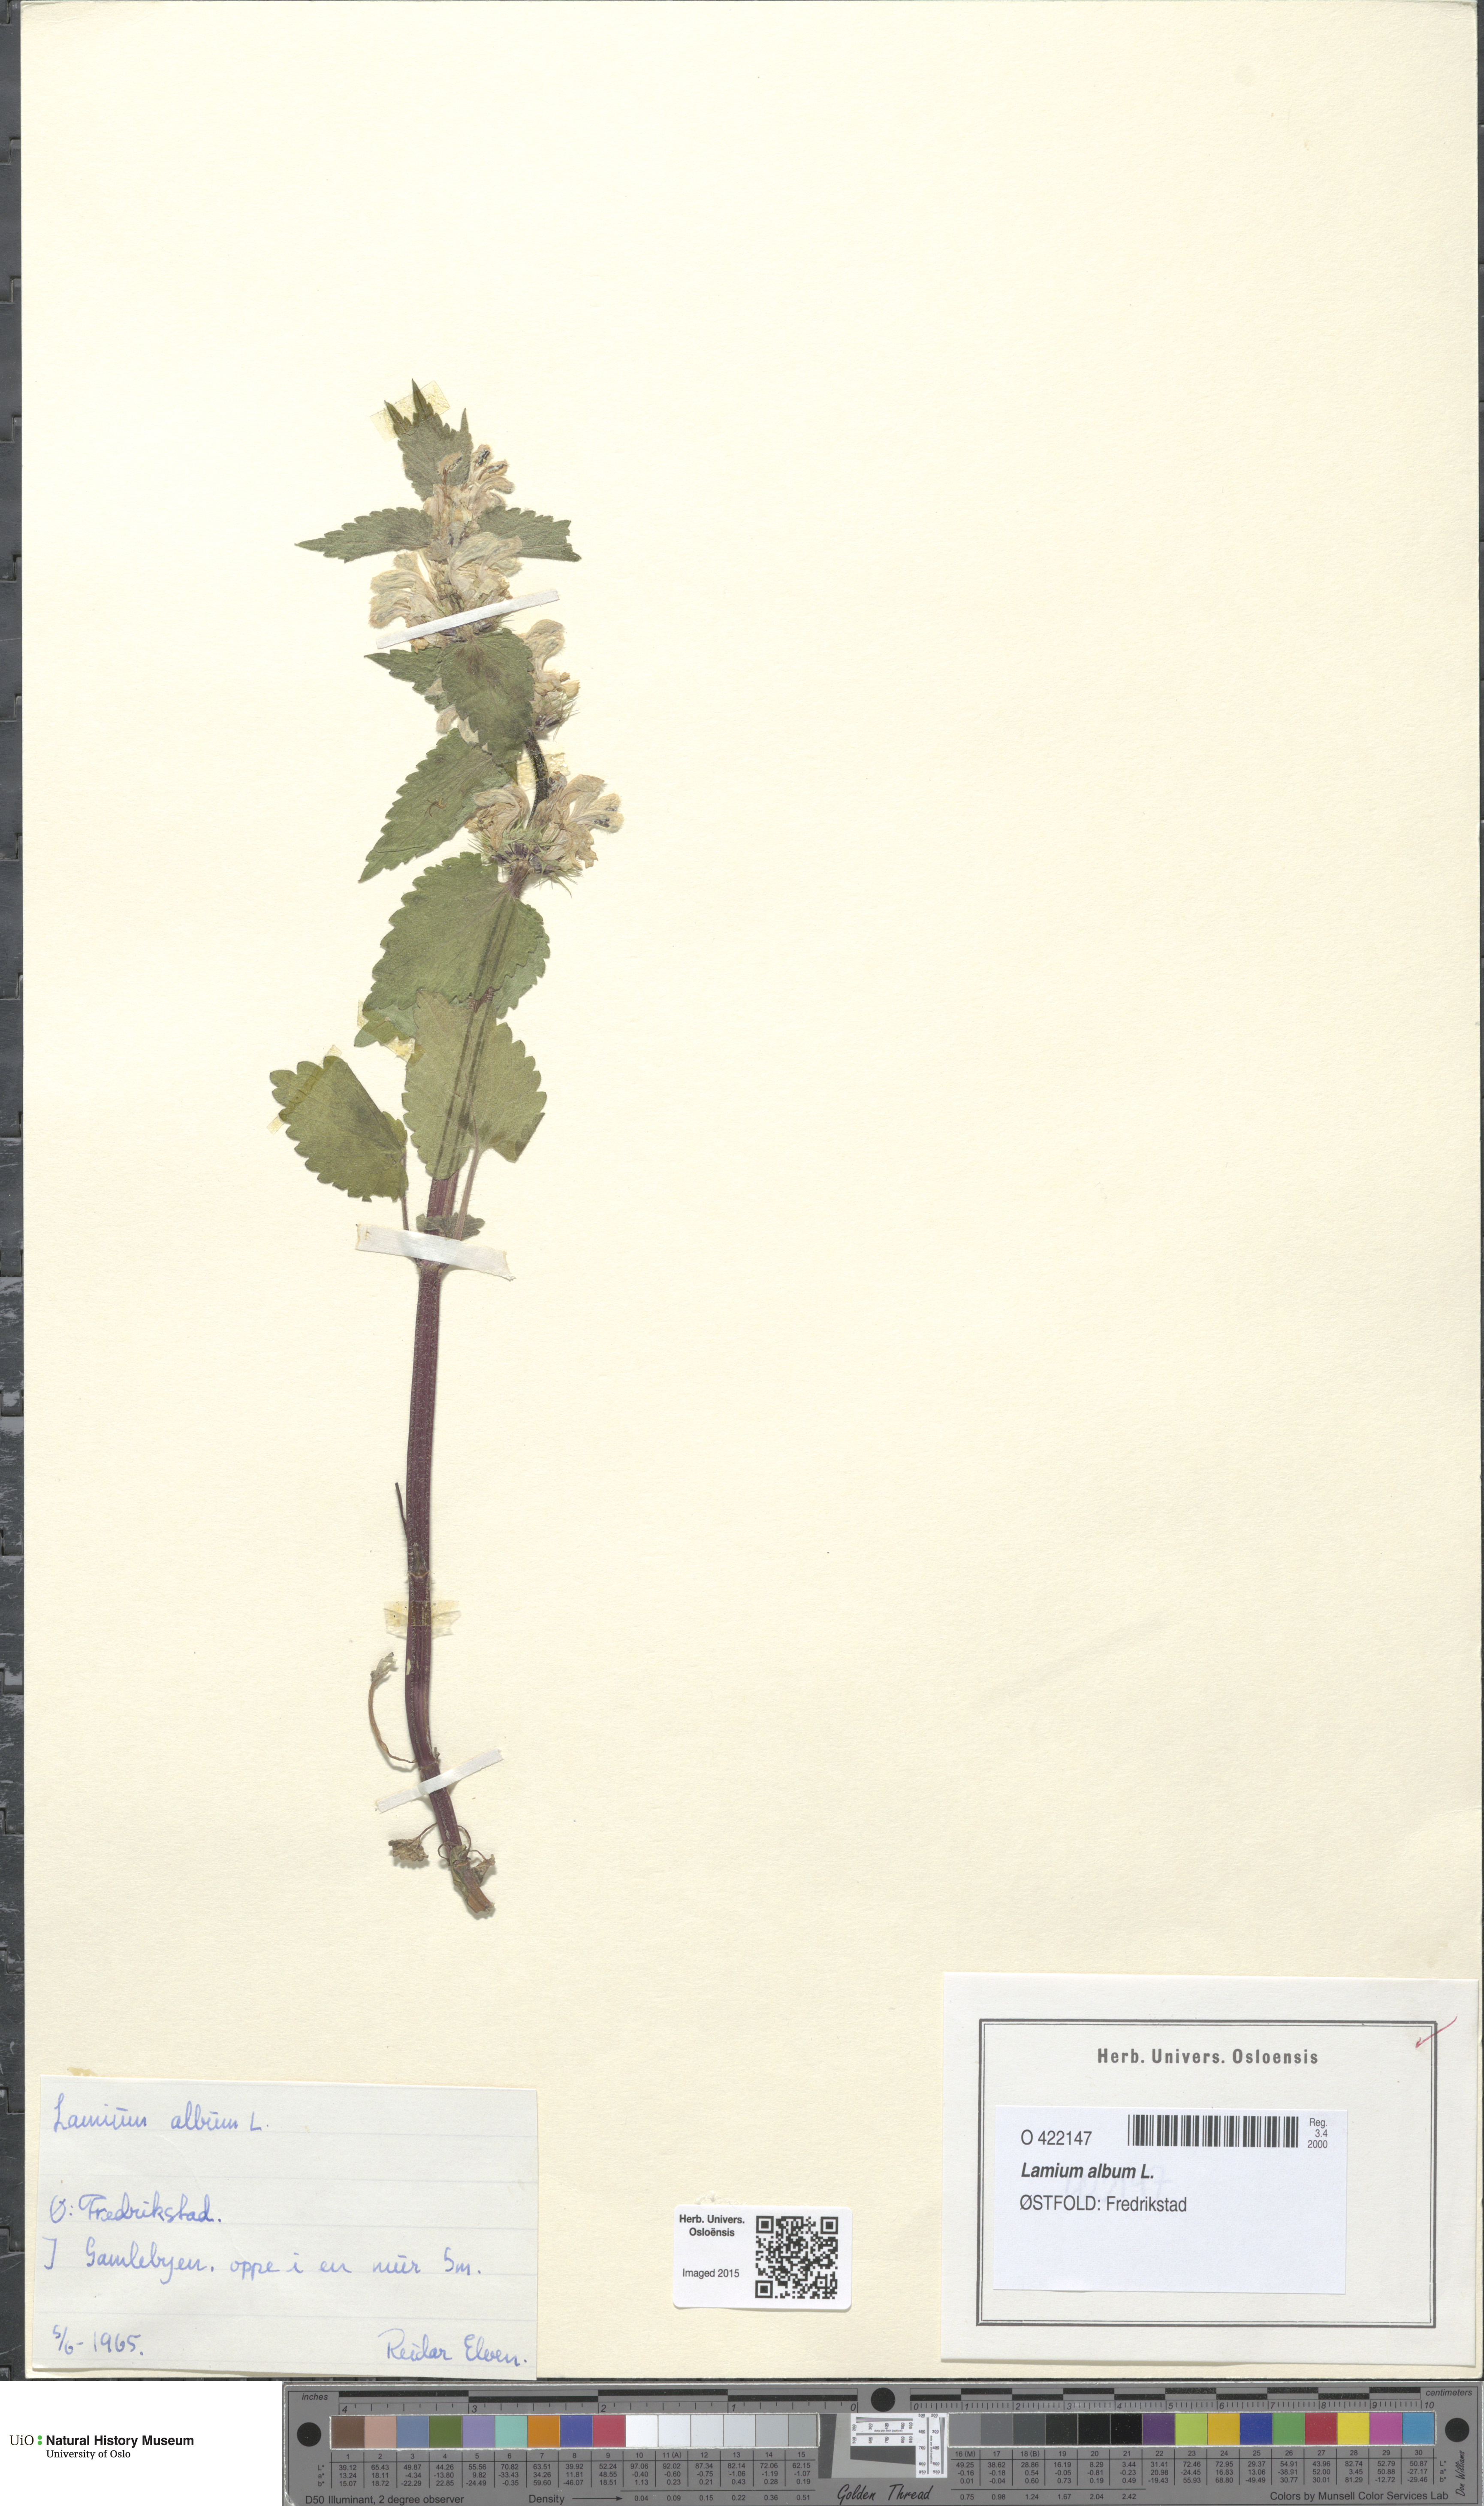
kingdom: Plantae
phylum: Tracheophyta
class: Magnoliopsida
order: Lamiales
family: Lamiaceae
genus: Lamium
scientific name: Lamium album
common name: White dead-nettle
